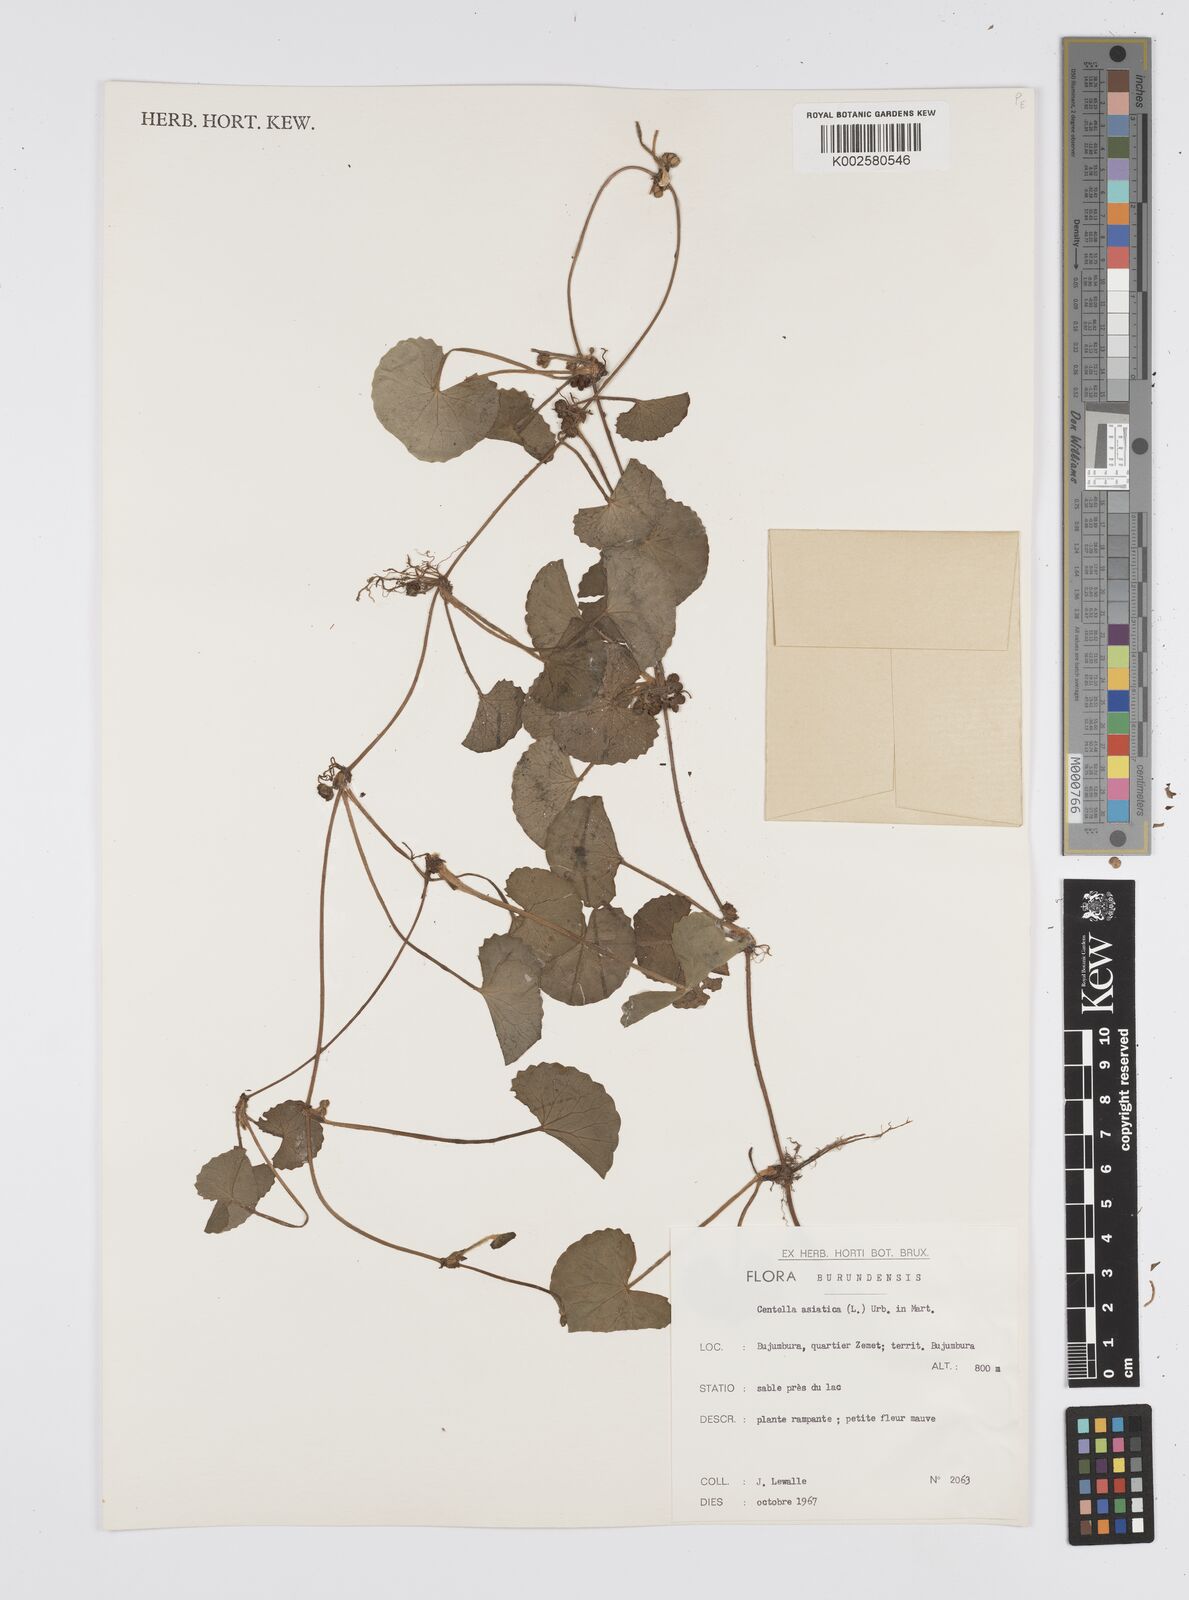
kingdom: Plantae
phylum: Tracheophyta
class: Magnoliopsida
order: Apiales
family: Apiaceae
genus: Centella
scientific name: Centella asiatica
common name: Spadeleaf
